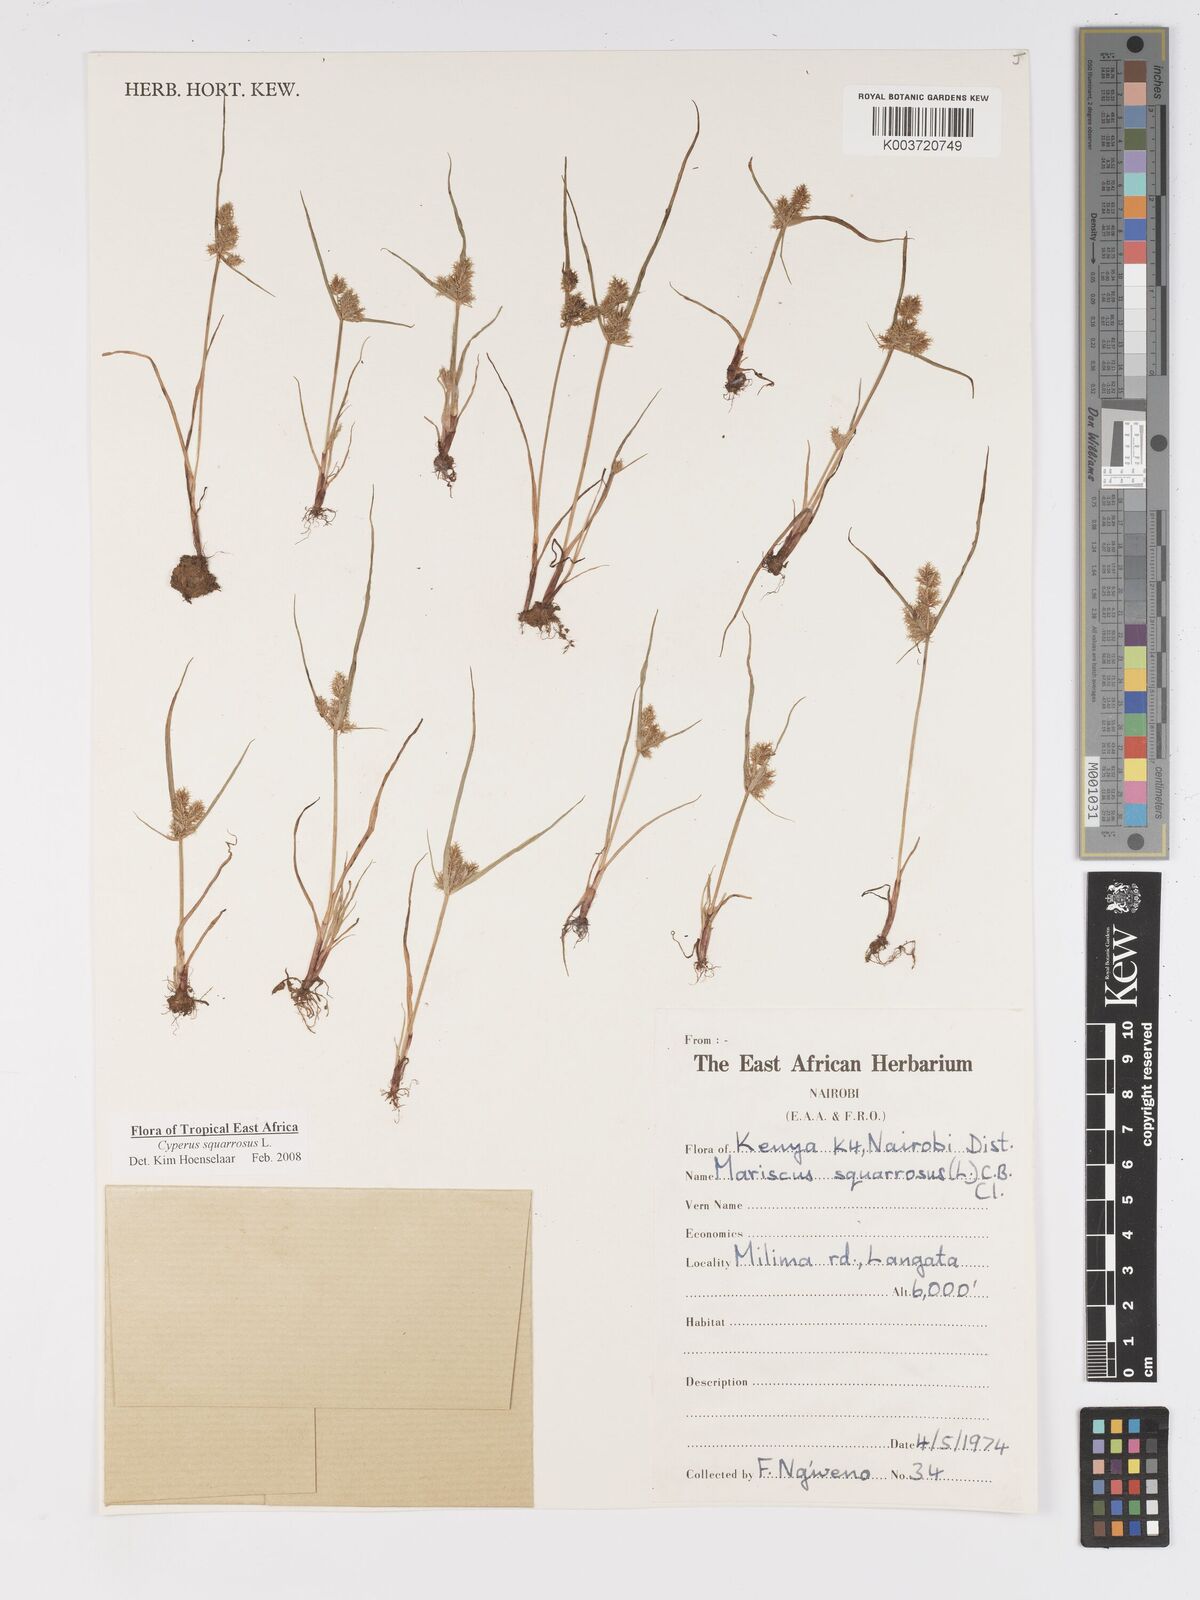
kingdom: Plantae
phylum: Tracheophyta
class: Liliopsida
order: Poales
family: Cyperaceae
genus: Cyperus
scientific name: Cyperus squarrosus
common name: Awned cyperus
